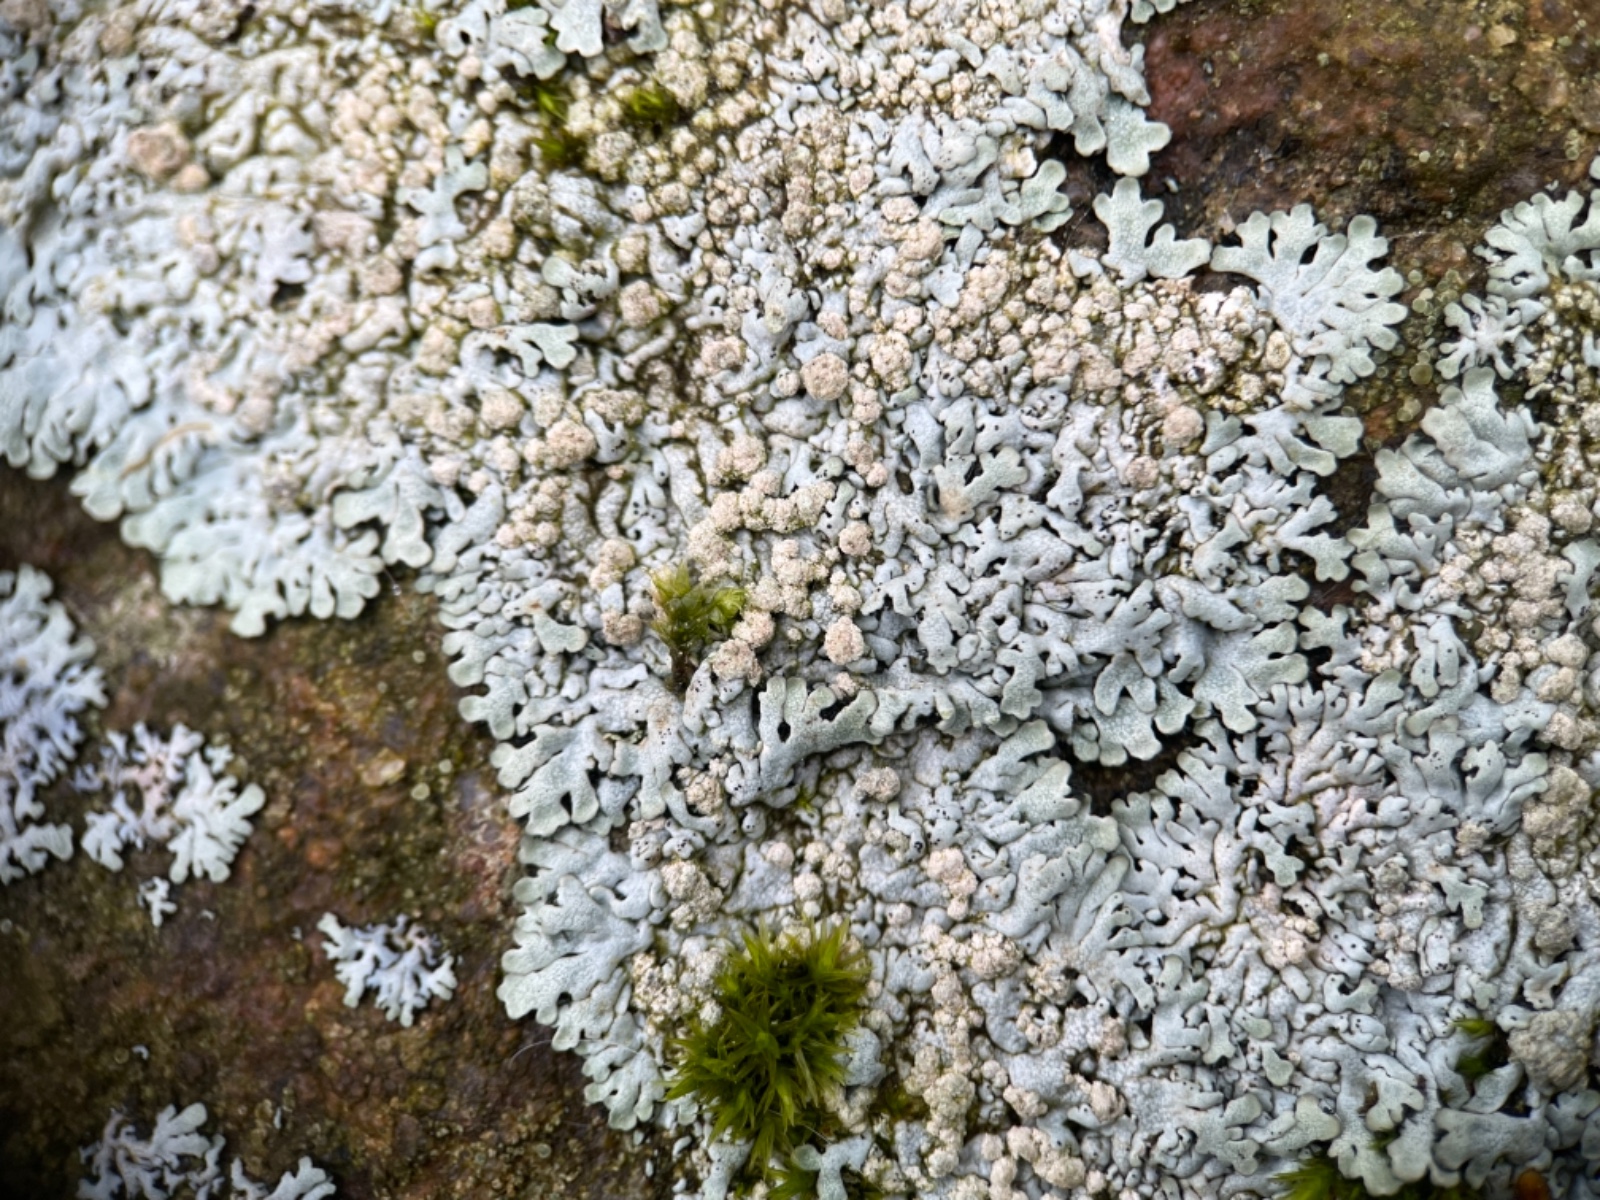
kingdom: Fungi
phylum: Ascomycota
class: Lecanoromycetes
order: Caliciales
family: Physciaceae
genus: Physcia
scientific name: Physcia caesia
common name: blågrå rosetlav
